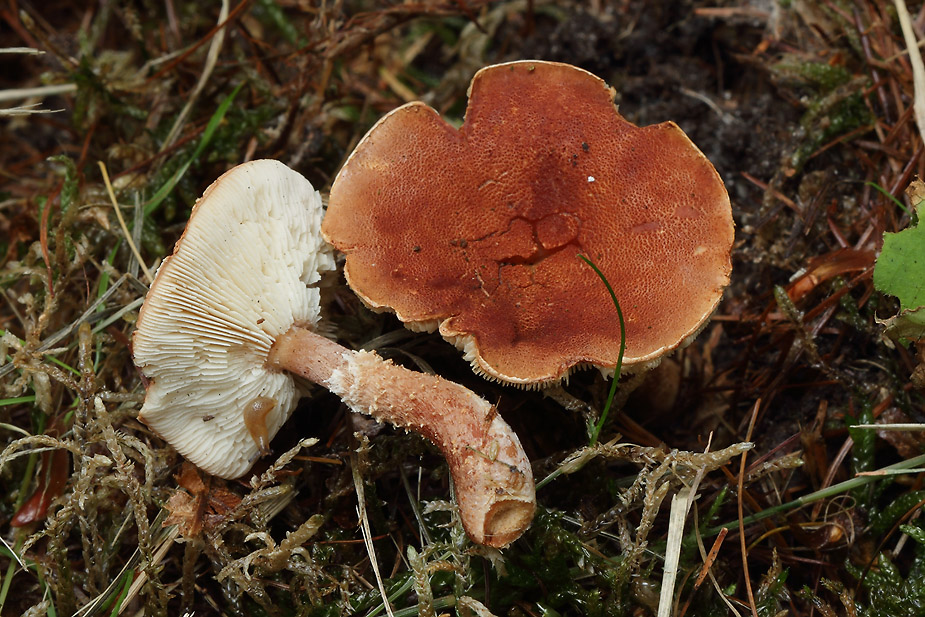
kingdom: Fungi
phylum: Basidiomycota
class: Agaricomycetes
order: Agaricales
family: Agaricaceae
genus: Cystodermella
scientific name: Cystodermella granulosa
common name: kliddet grynhat
